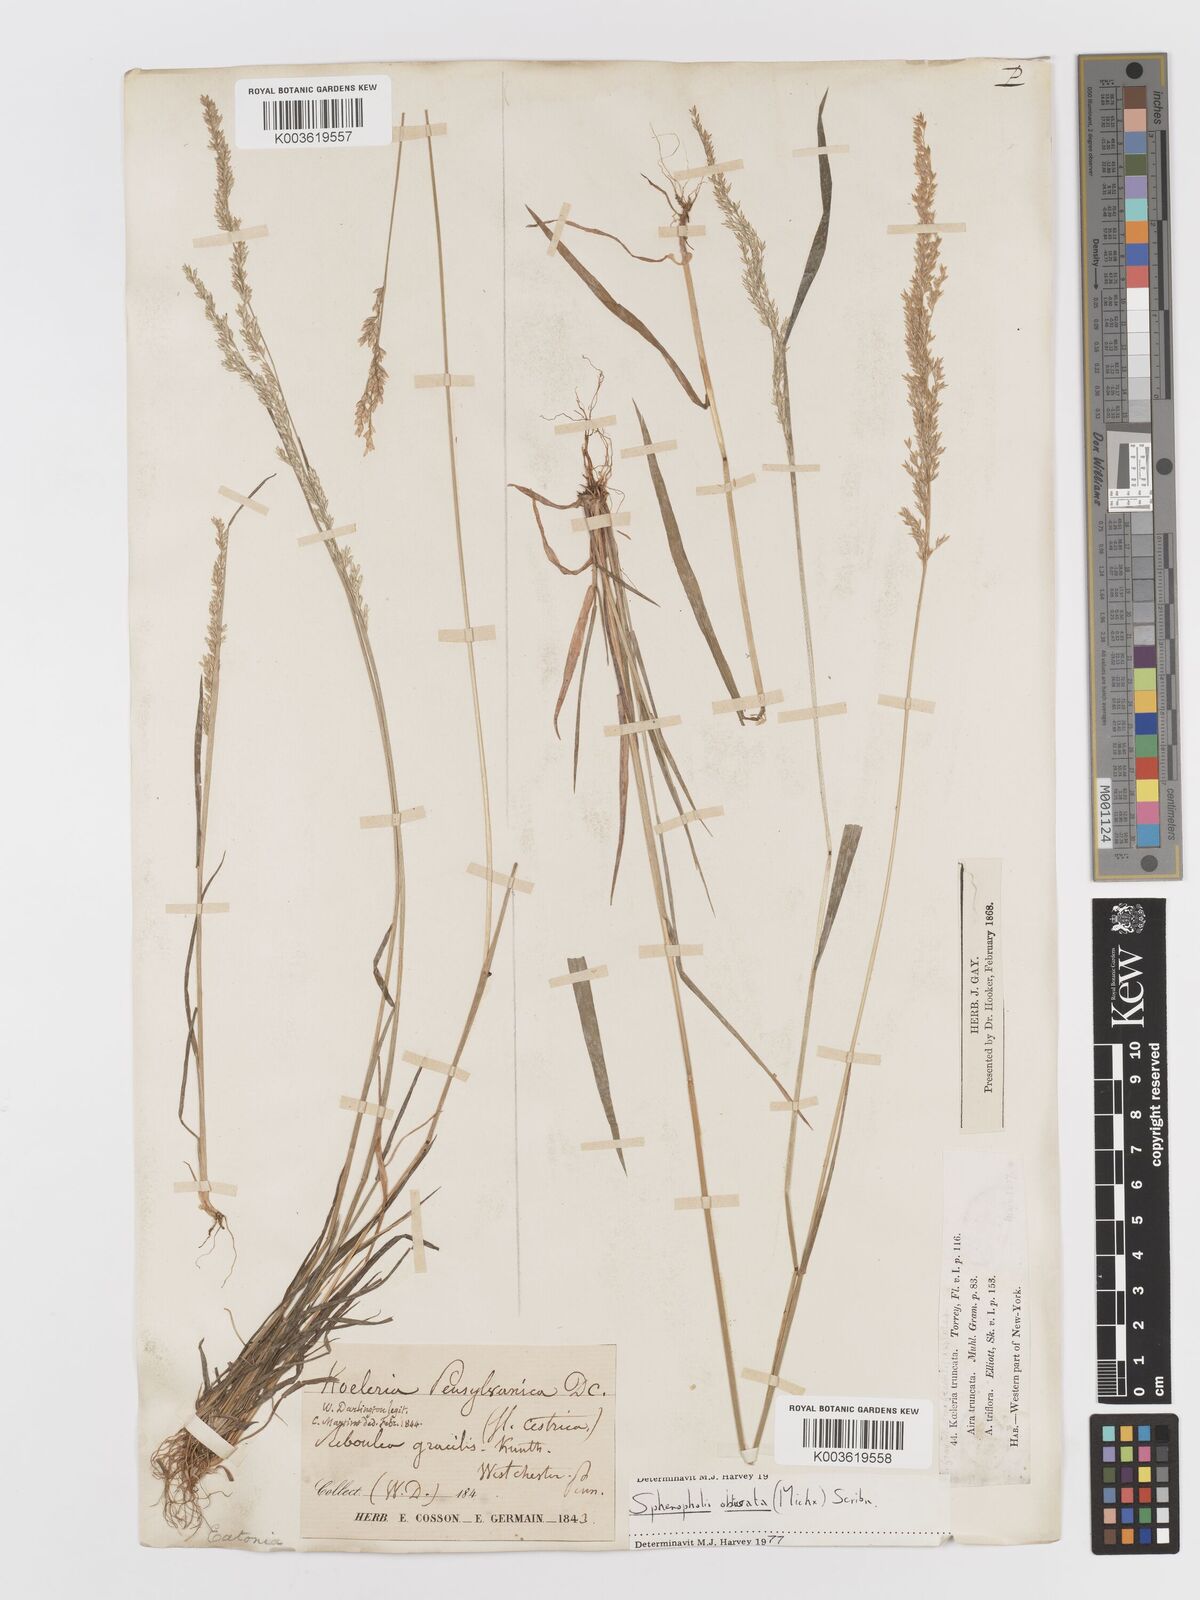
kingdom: Plantae
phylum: Tracheophyta
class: Liliopsida
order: Poales
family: Poaceae
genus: Sphenopholis
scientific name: Sphenopholis obtusata
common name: Prairie grass
